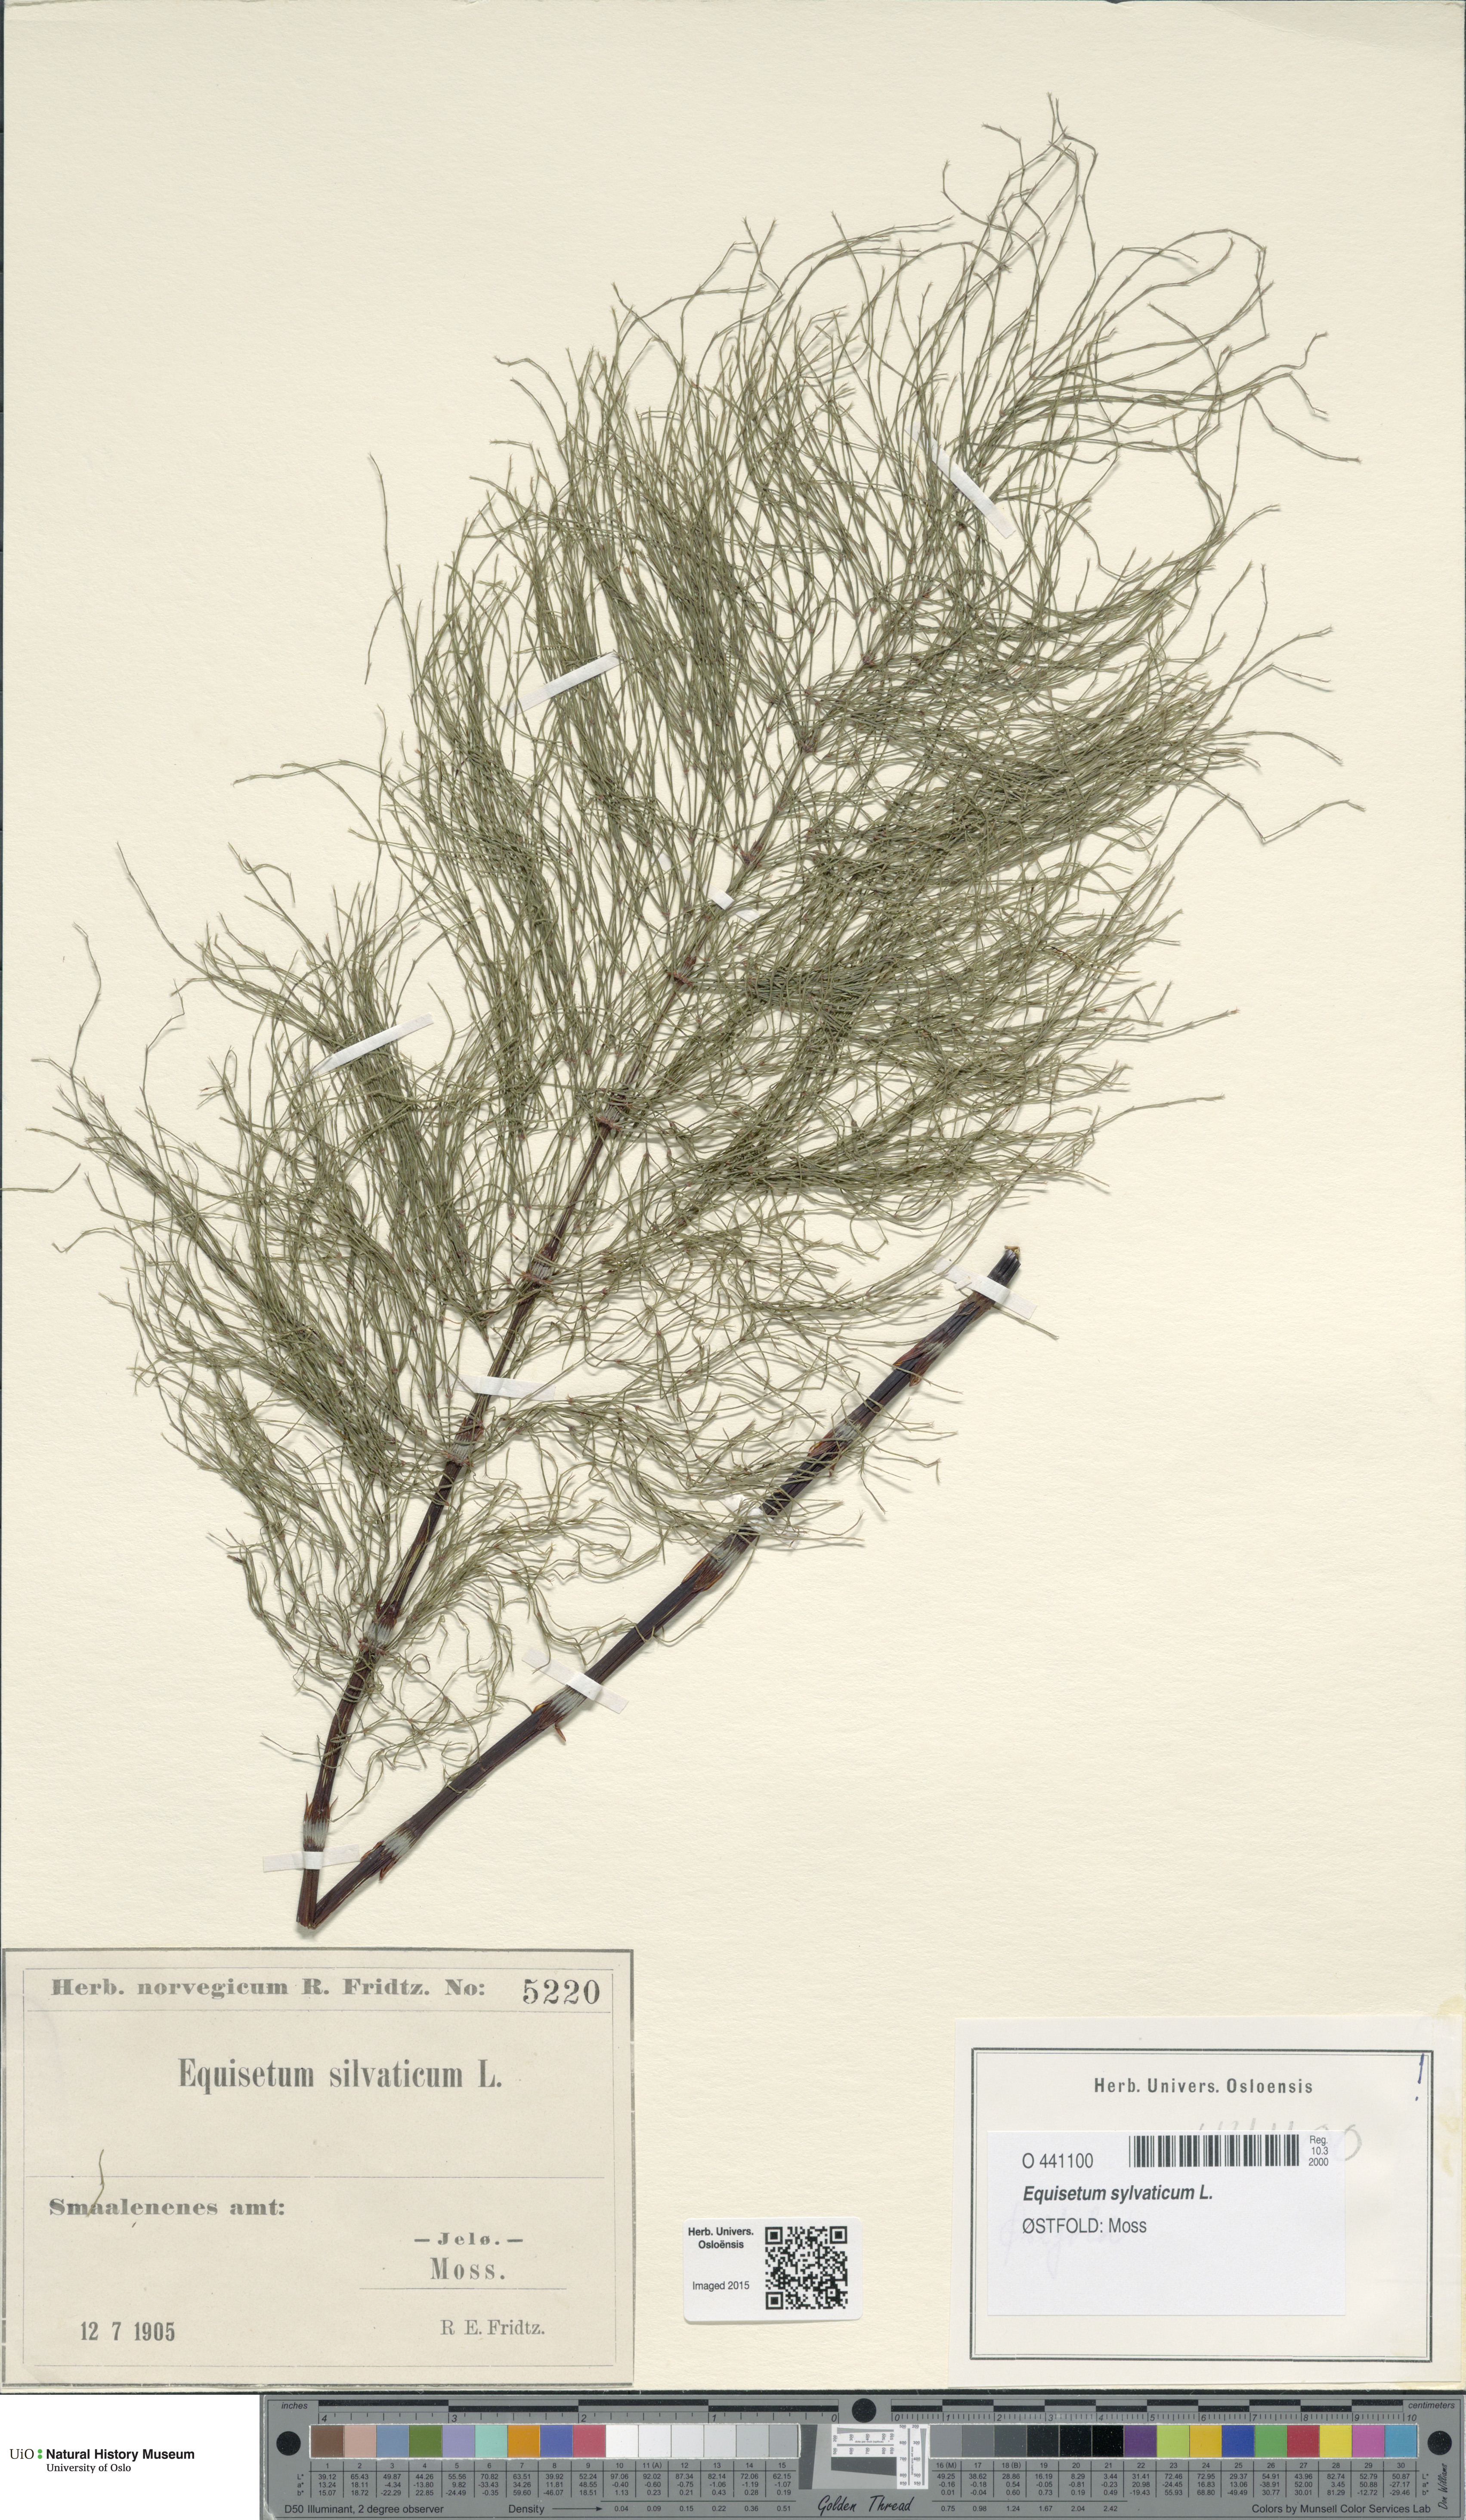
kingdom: Plantae
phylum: Tracheophyta
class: Polypodiopsida
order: Equisetales
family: Equisetaceae
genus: Equisetum
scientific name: Equisetum sylvaticum
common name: Wood horsetail
